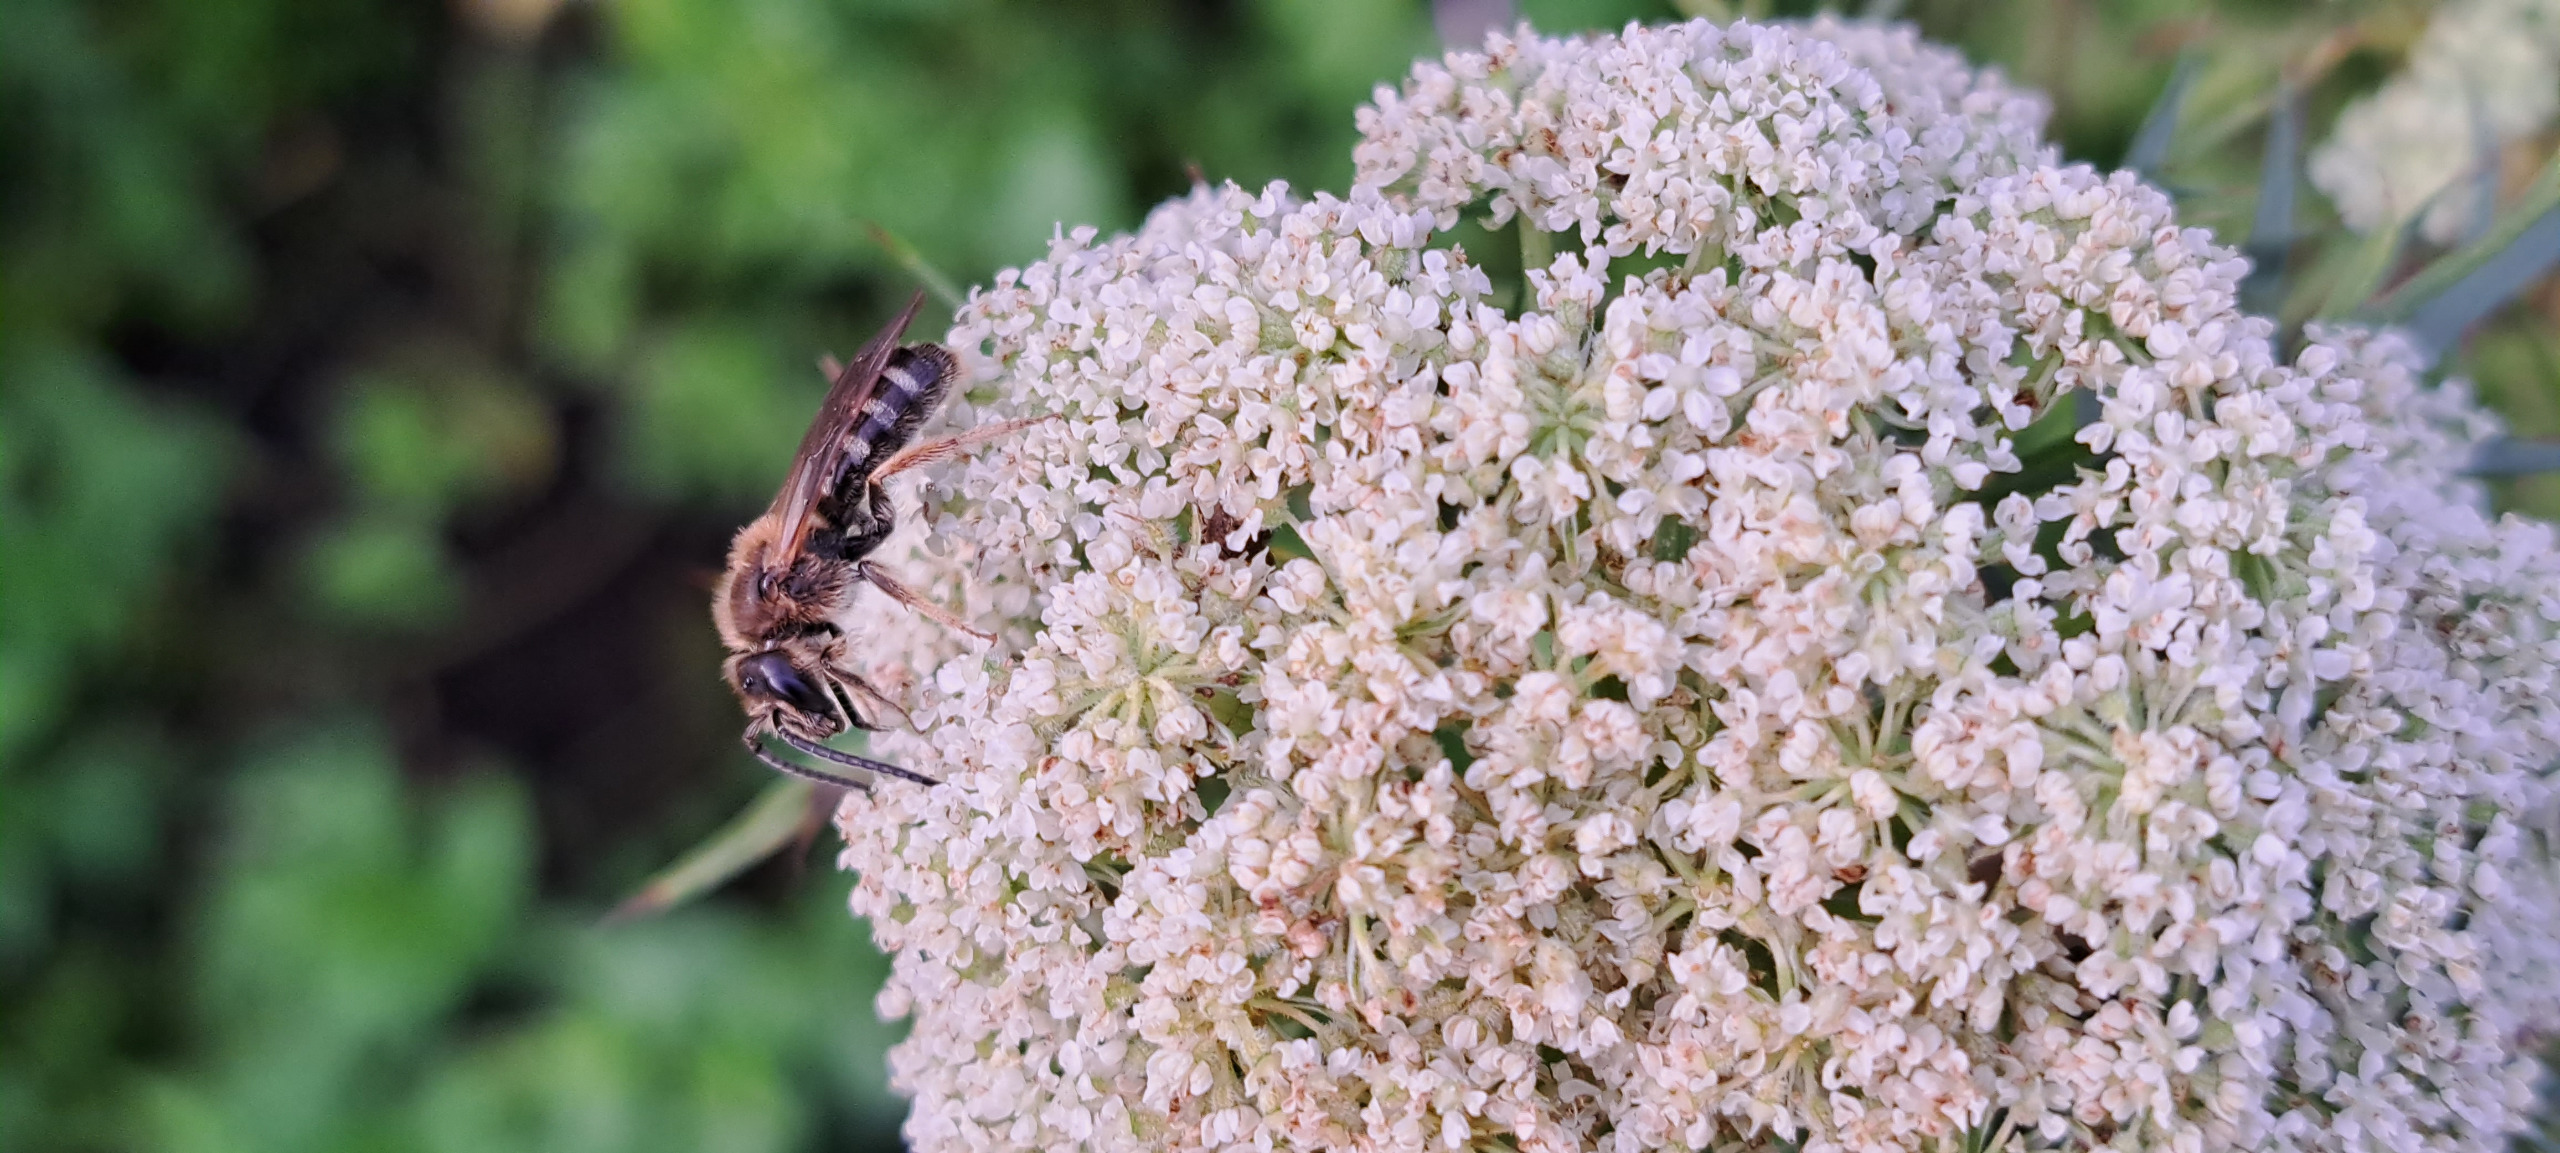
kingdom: Animalia
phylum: Arthropoda
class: Insecta
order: Hymenoptera
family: Halictidae
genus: Lasioglossum
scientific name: Lasioglossum xanthopus
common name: Rustsmalbi
